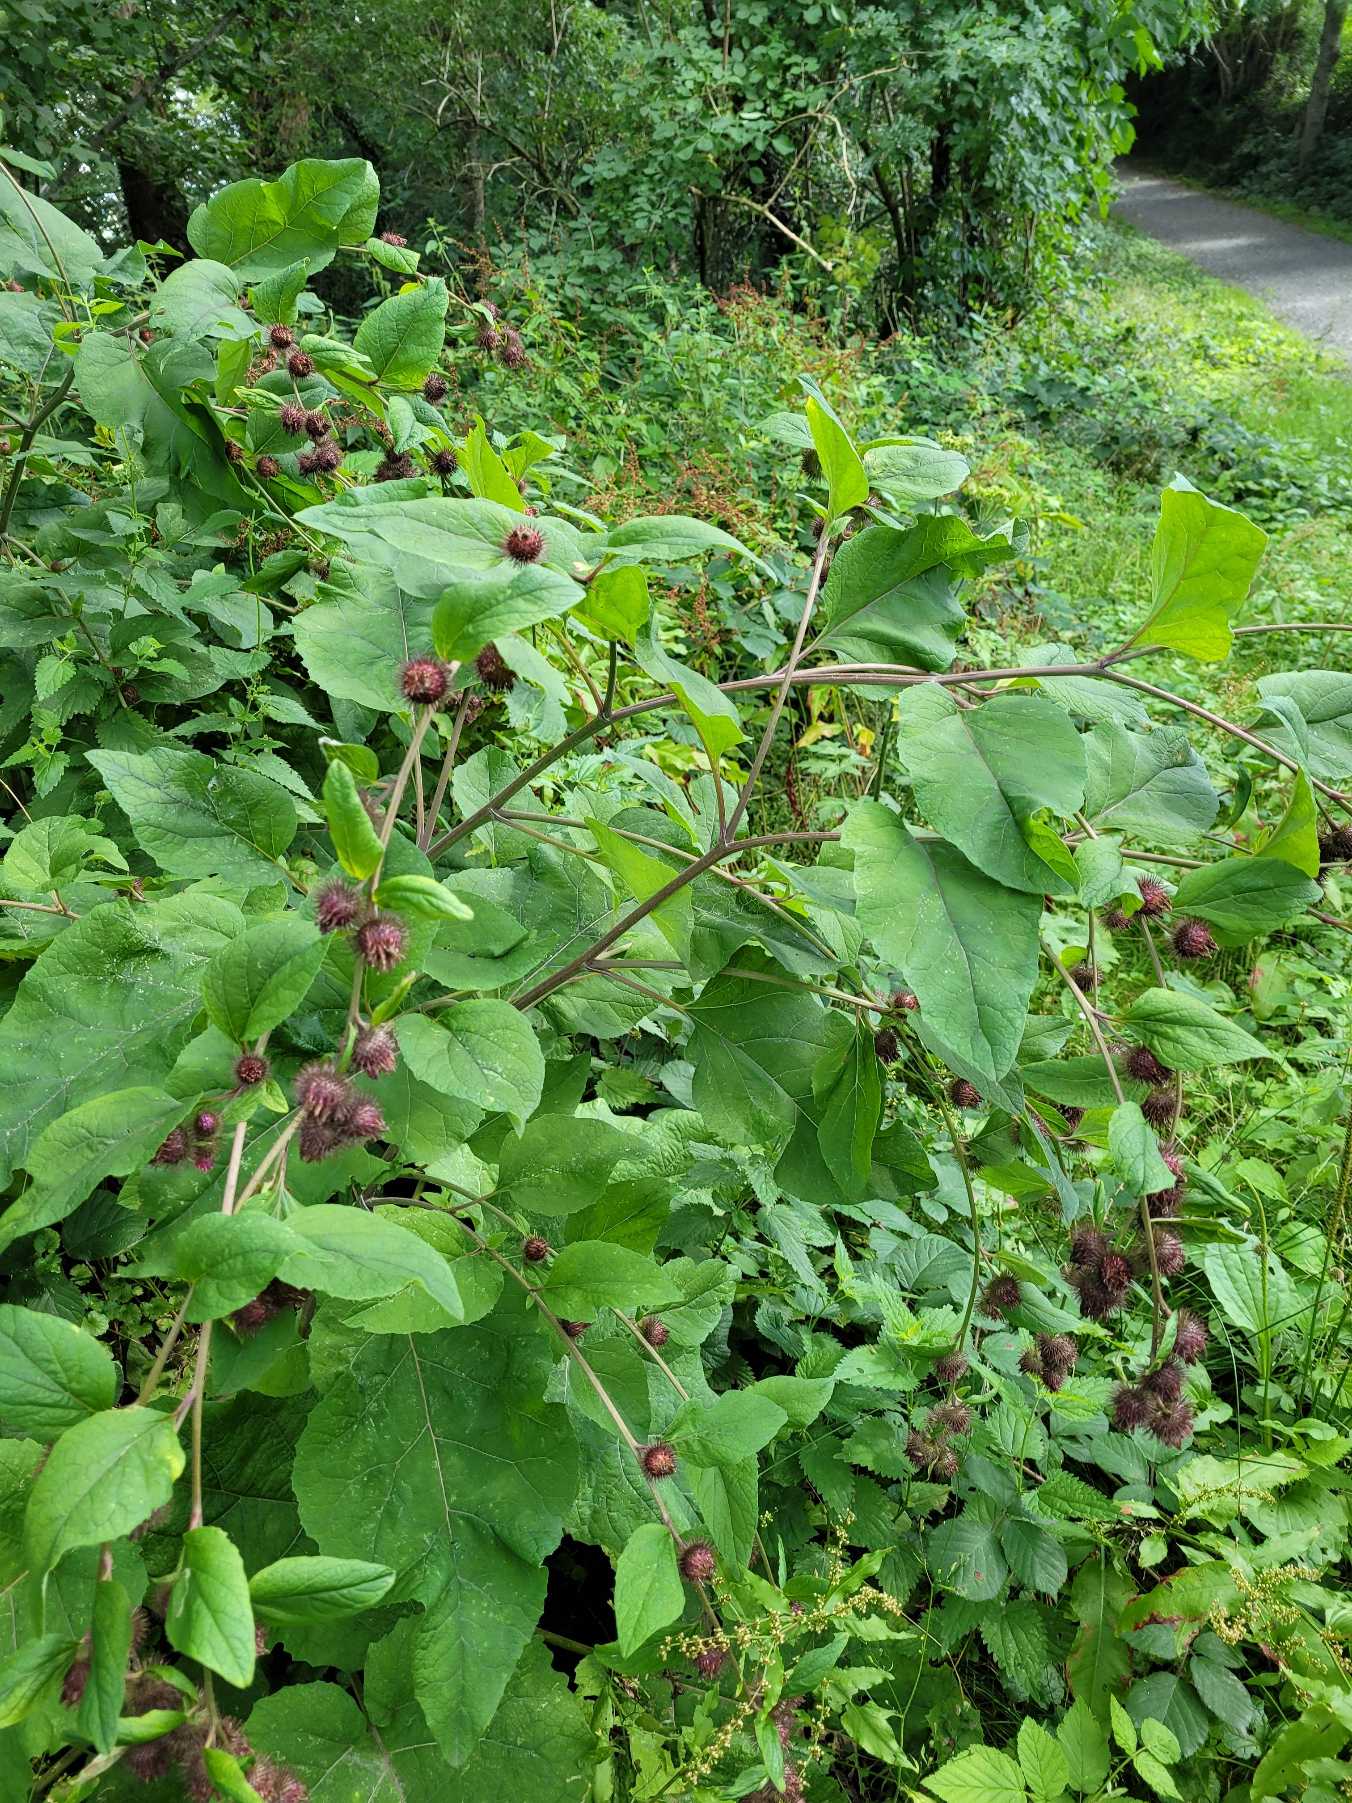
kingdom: Plantae
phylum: Tracheophyta
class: Magnoliopsida
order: Asterales
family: Asteraceae
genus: Arctium
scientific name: Arctium nemorosum
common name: Skov-burre
